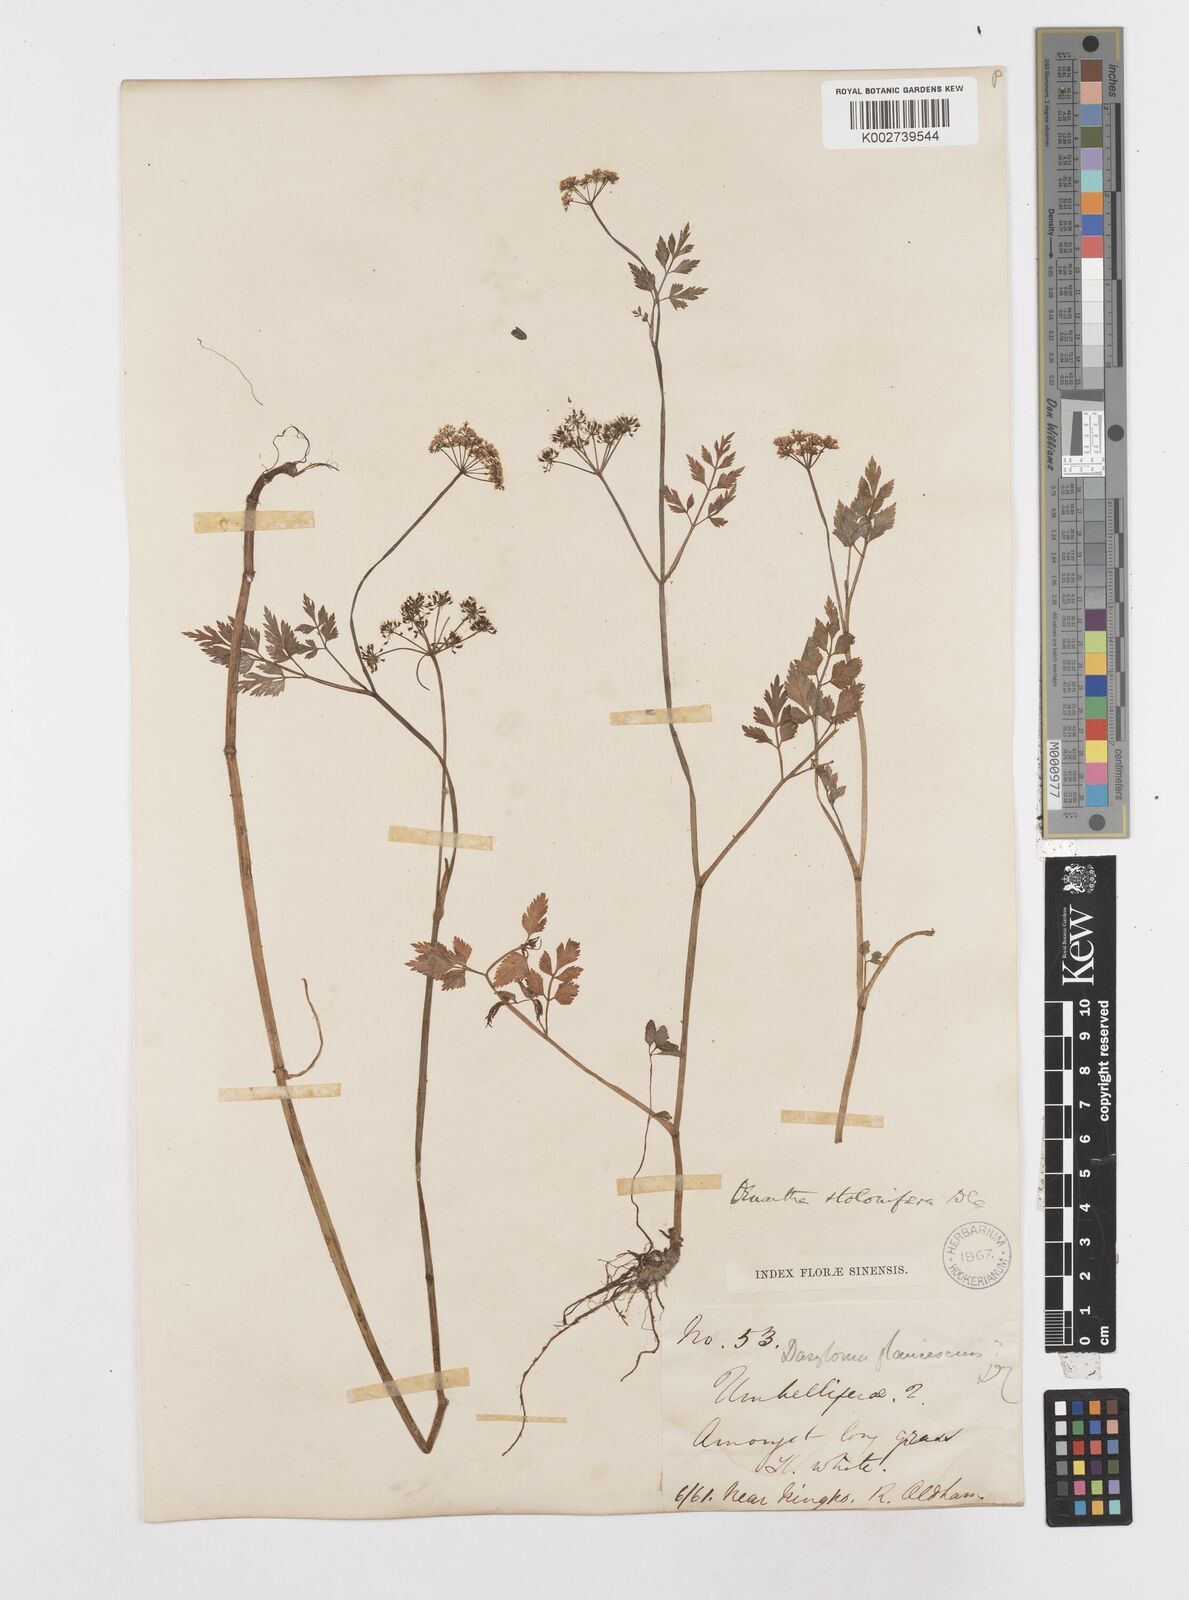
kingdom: Plantae
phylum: Tracheophyta
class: Magnoliopsida
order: Apiales
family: Apiaceae
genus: Oenanthe
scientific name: Oenanthe javanica
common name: Java water-dropwort
